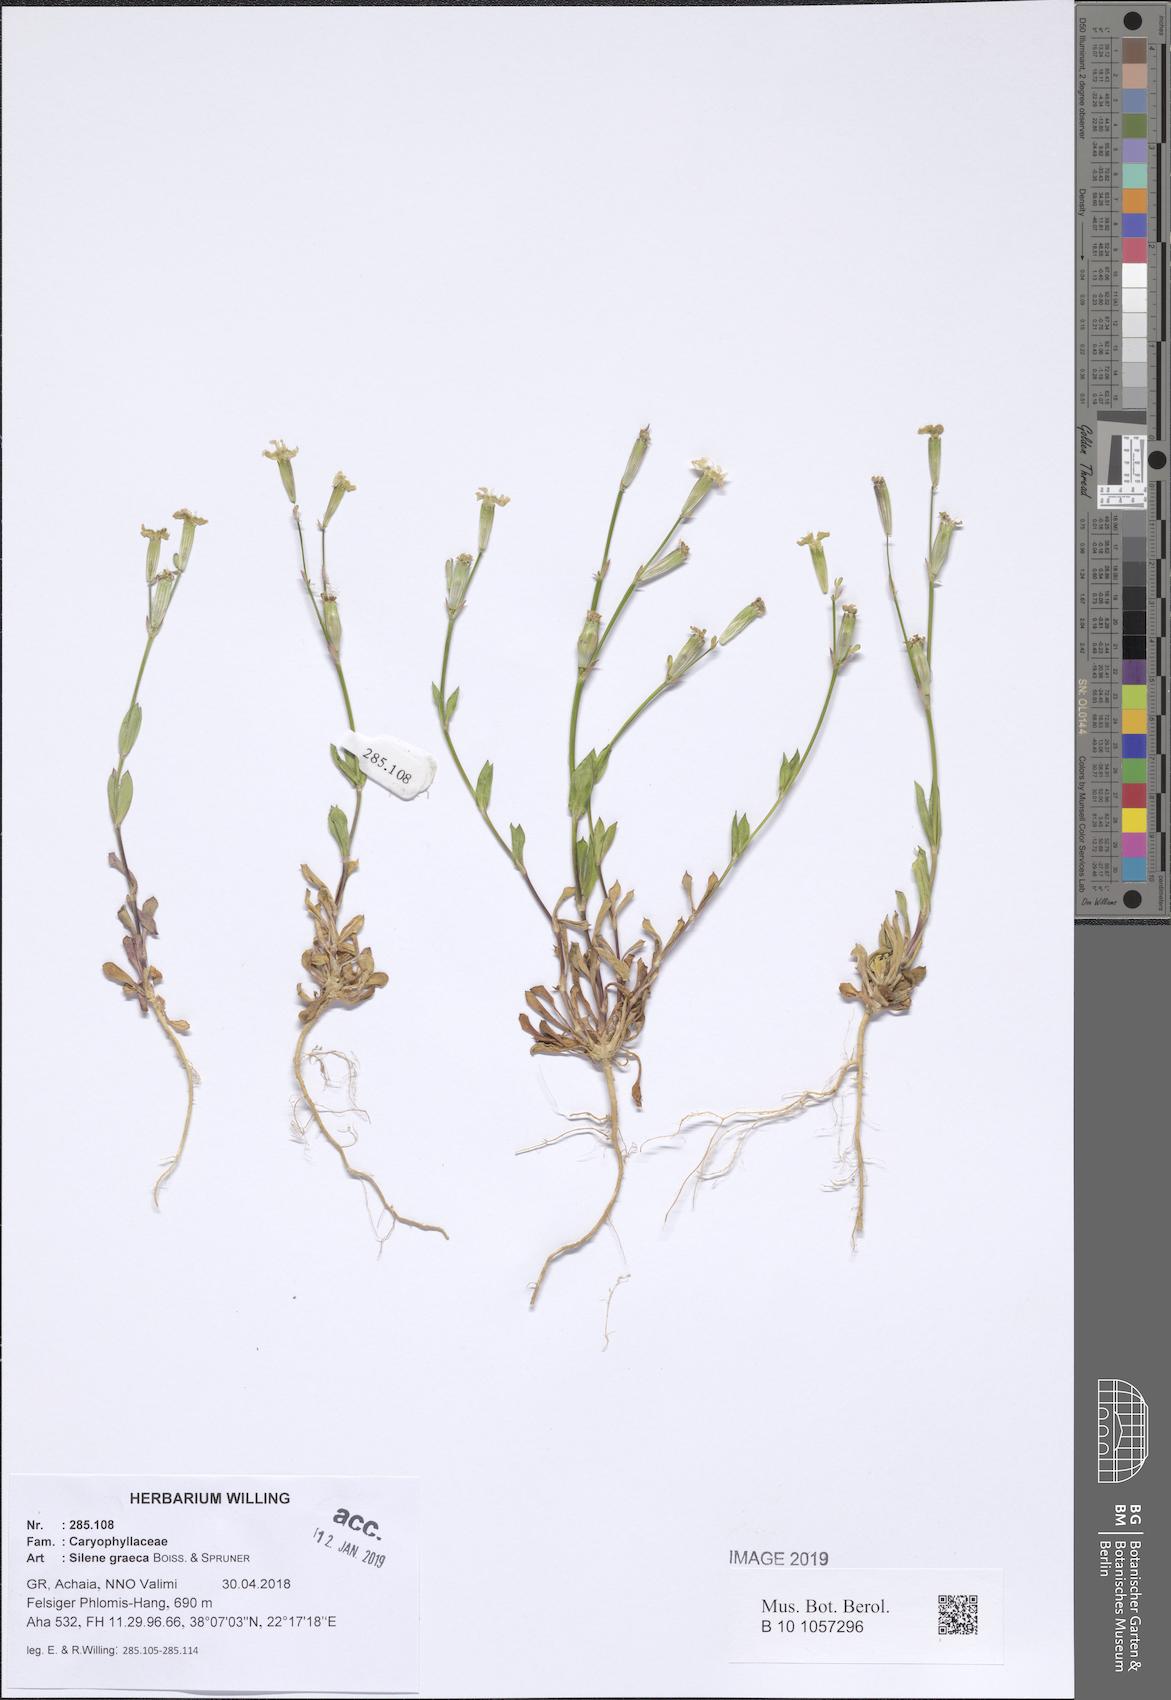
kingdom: Plantae
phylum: Tracheophyta
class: Magnoliopsida
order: Caryophyllales
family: Caryophyllaceae
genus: Silene
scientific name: Silene graeca
